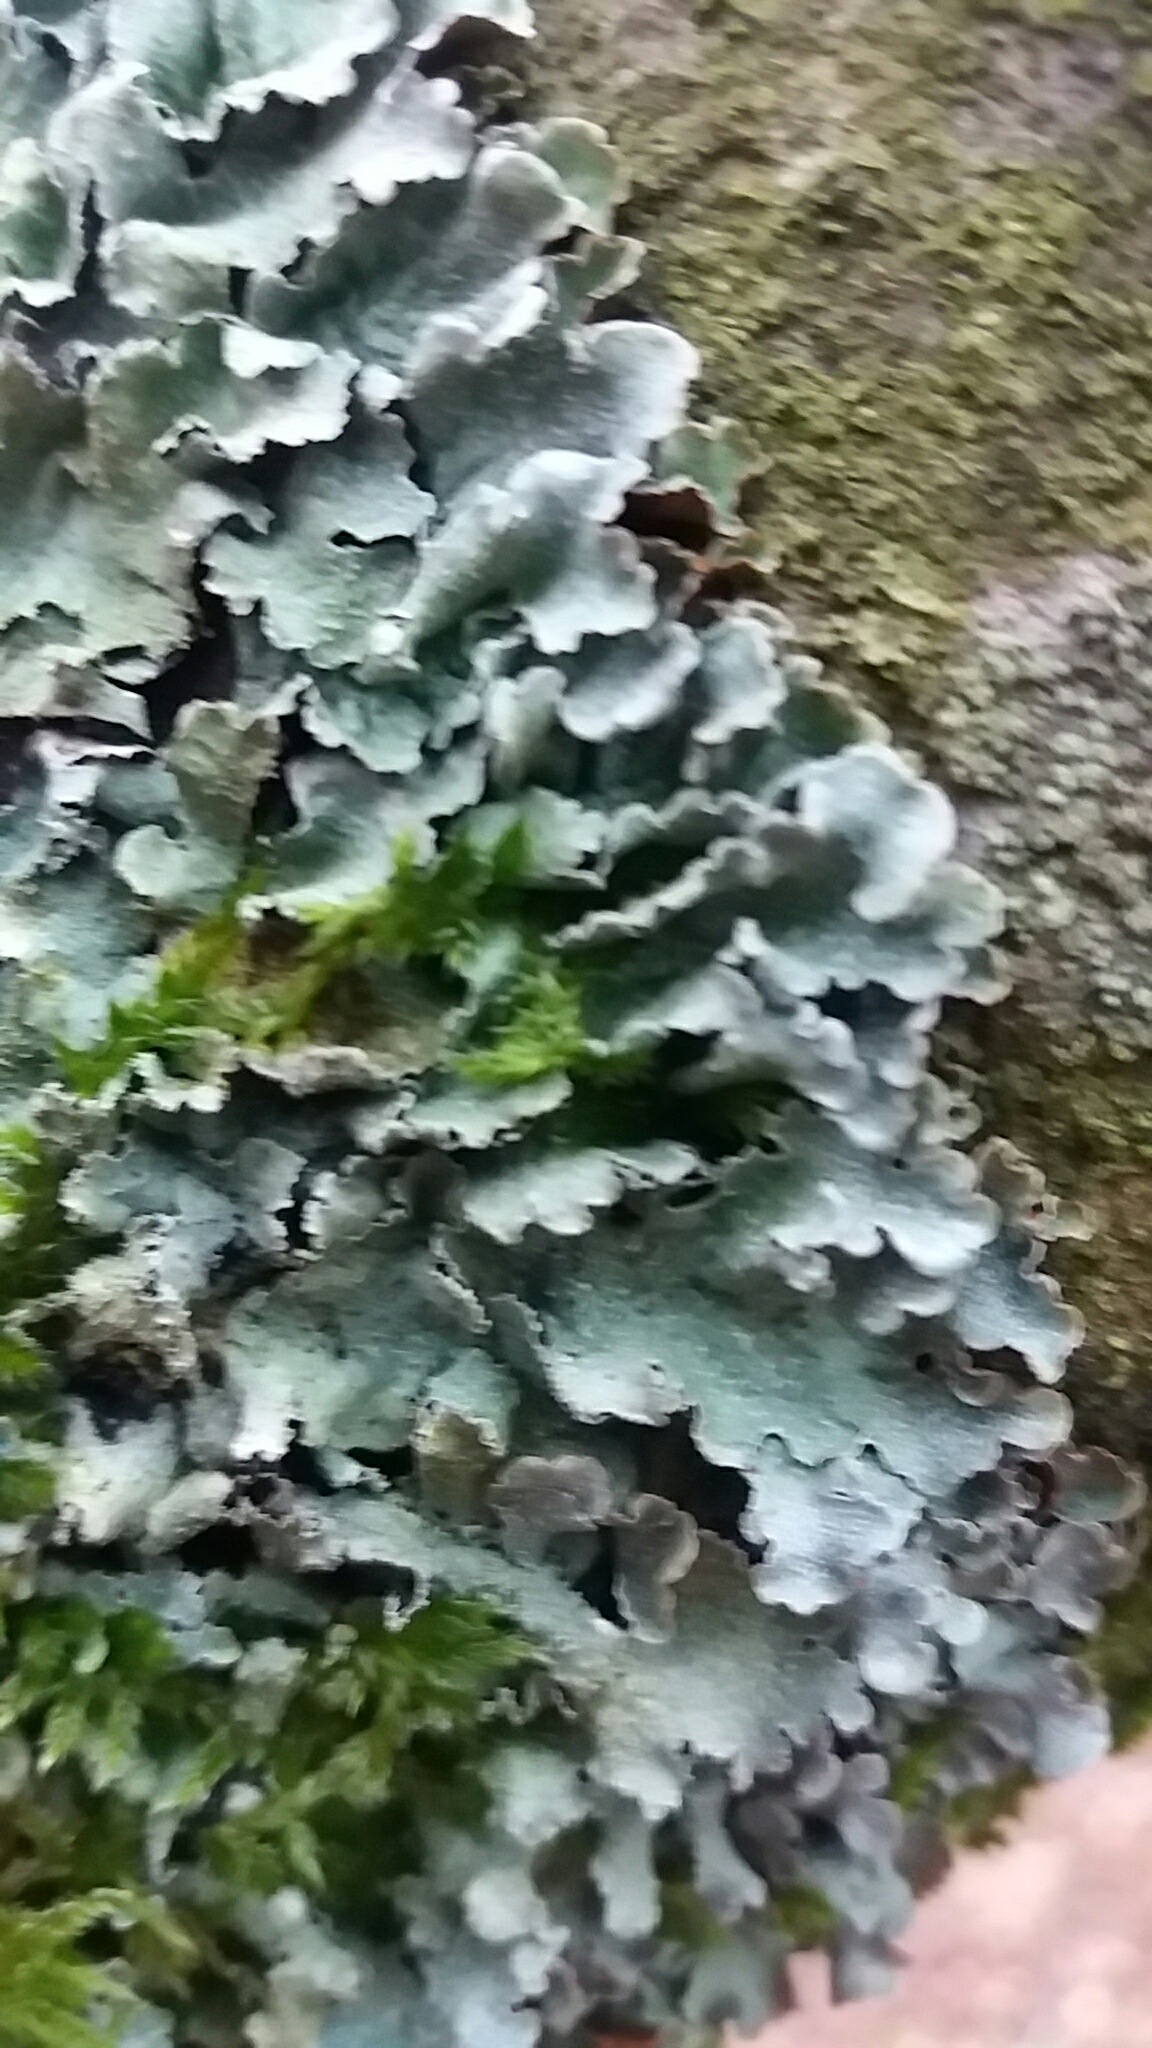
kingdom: Fungi
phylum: Ascomycota
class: Lecanoromycetes
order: Lecanorales
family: Parmeliaceae
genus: Parmelia
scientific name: Parmelia sulcata
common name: rynket skållav
